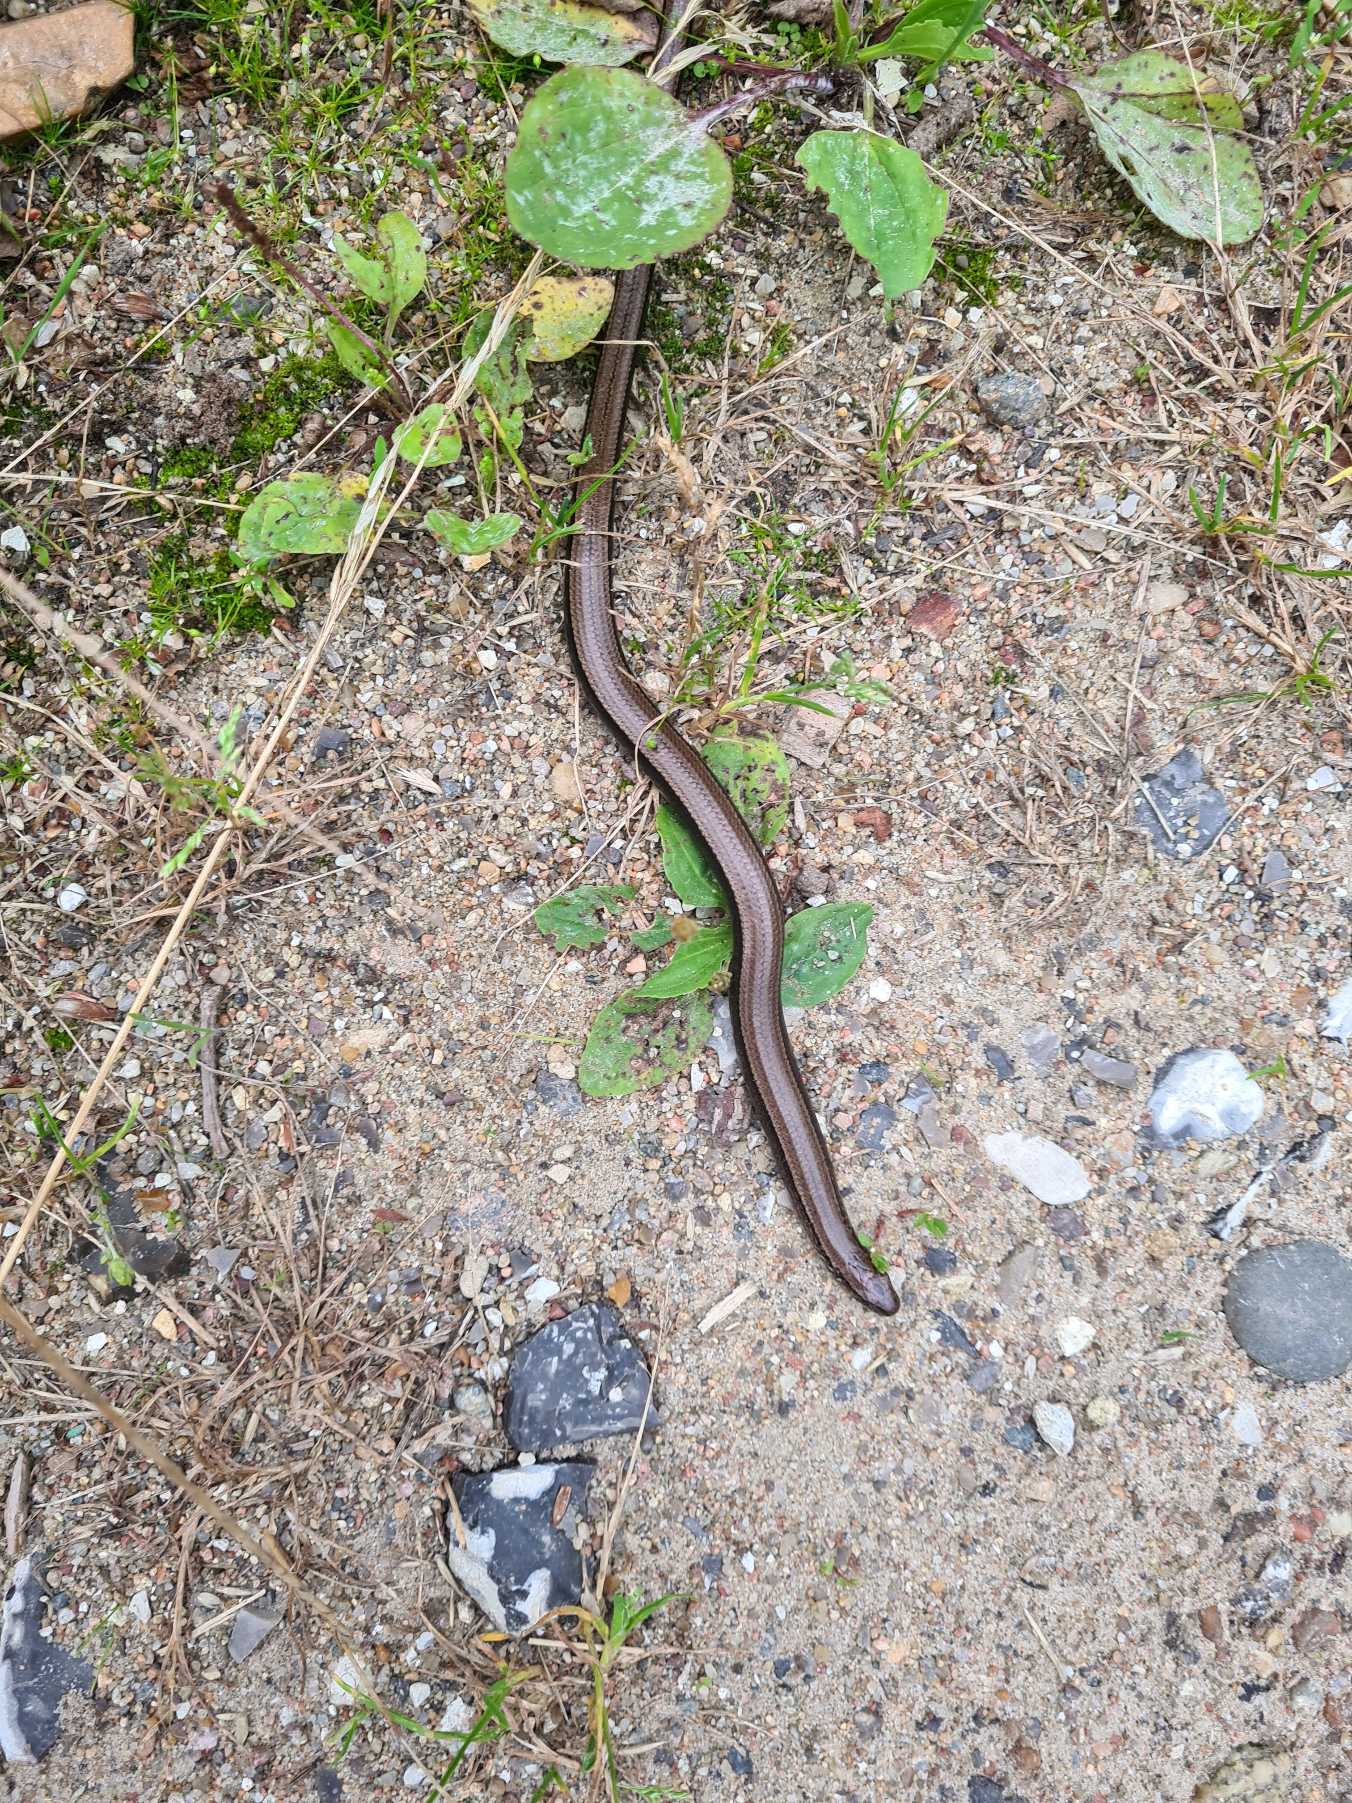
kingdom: Animalia
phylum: Chordata
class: Squamata
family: Anguidae
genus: Anguis
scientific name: Anguis fragilis
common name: Stålorm
